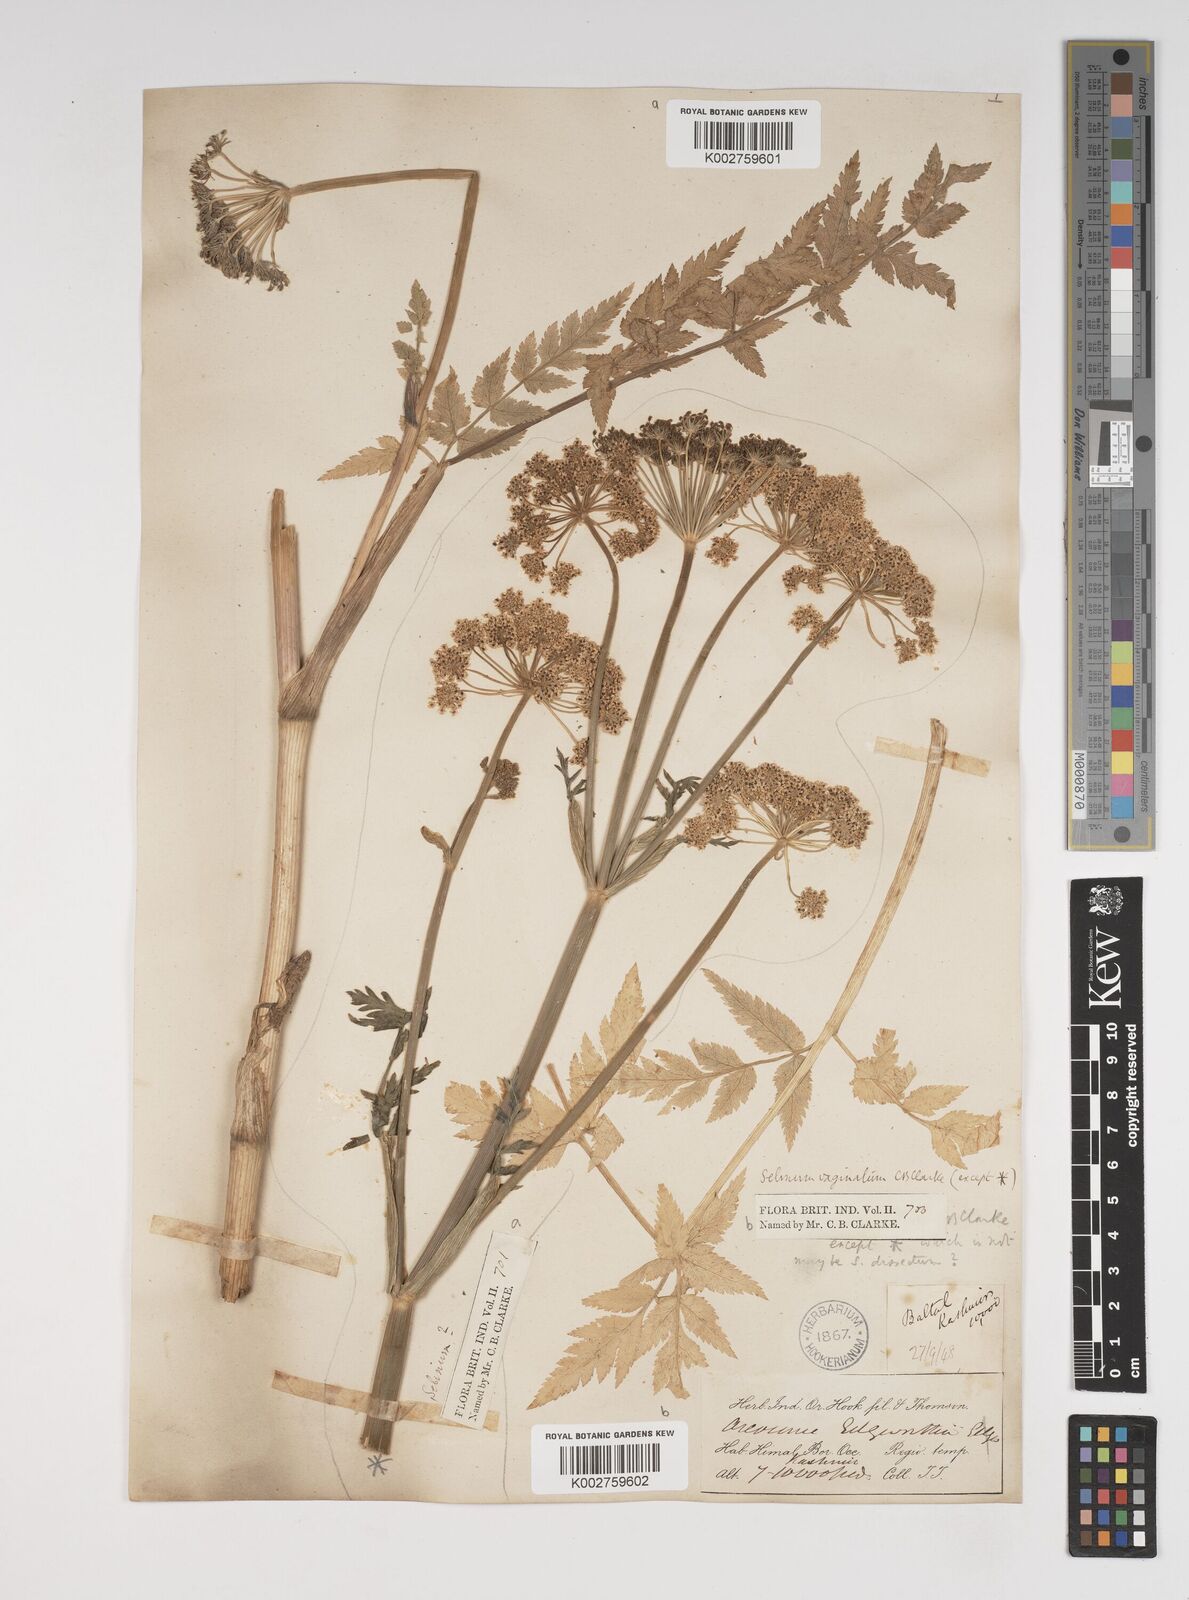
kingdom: Plantae
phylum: Tracheophyta
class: Magnoliopsida
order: Apiales
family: Apiaceae
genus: Selinum
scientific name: Selinum vaginatum
